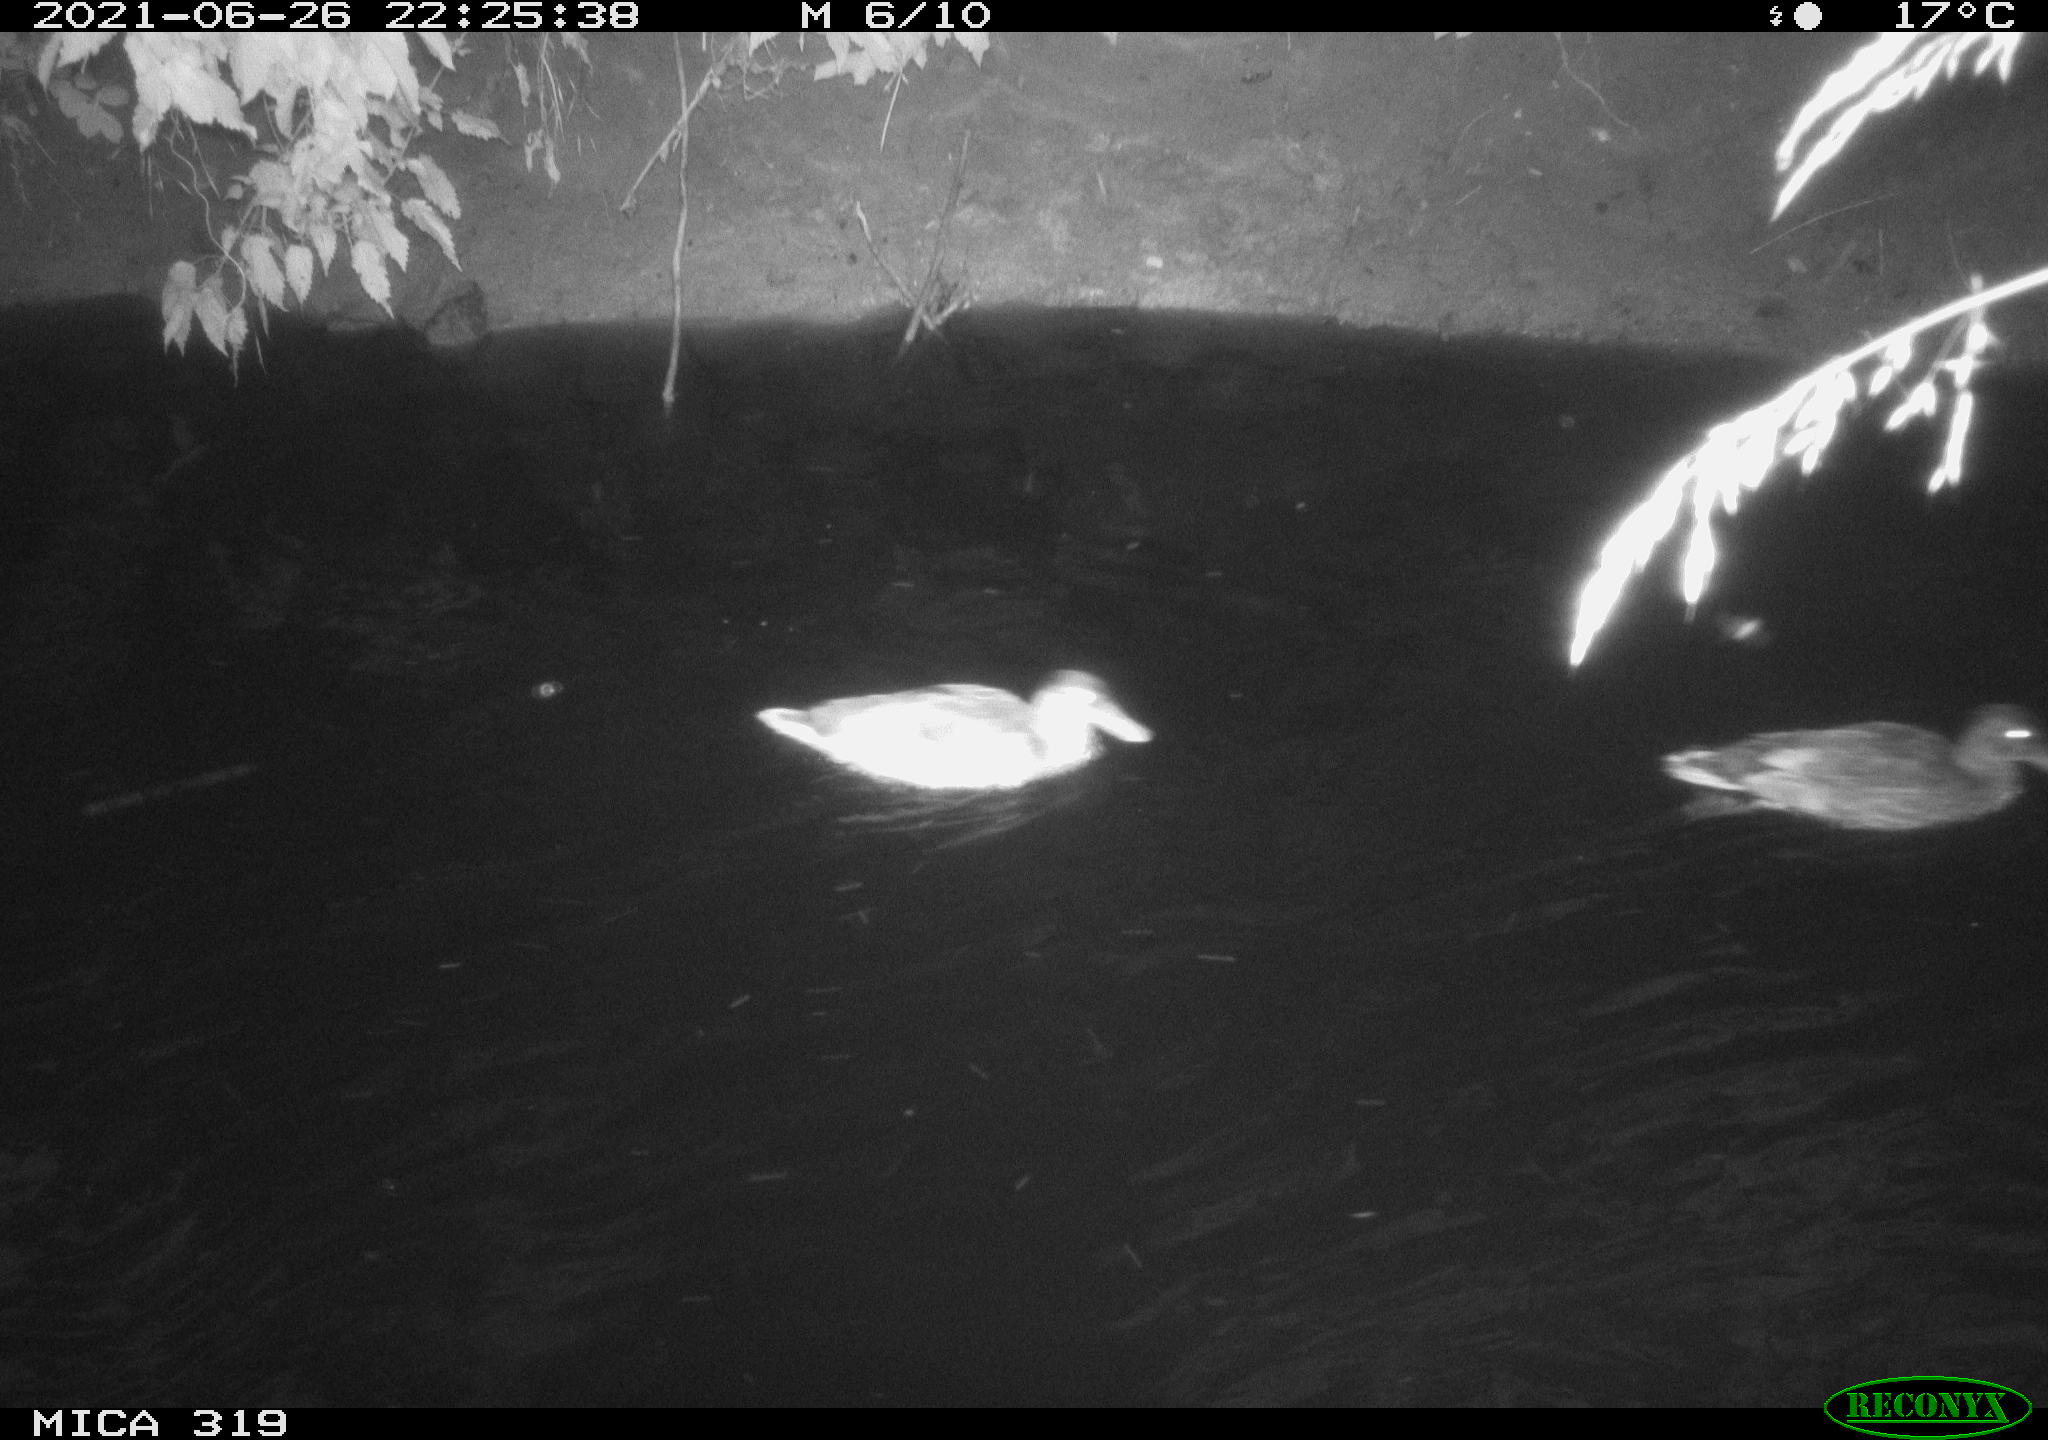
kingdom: Animalia
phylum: Chordata
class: Aves
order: Anseriformes
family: Anatidae
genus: Anas
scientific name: Anas platyrhynchos
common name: Mallard
